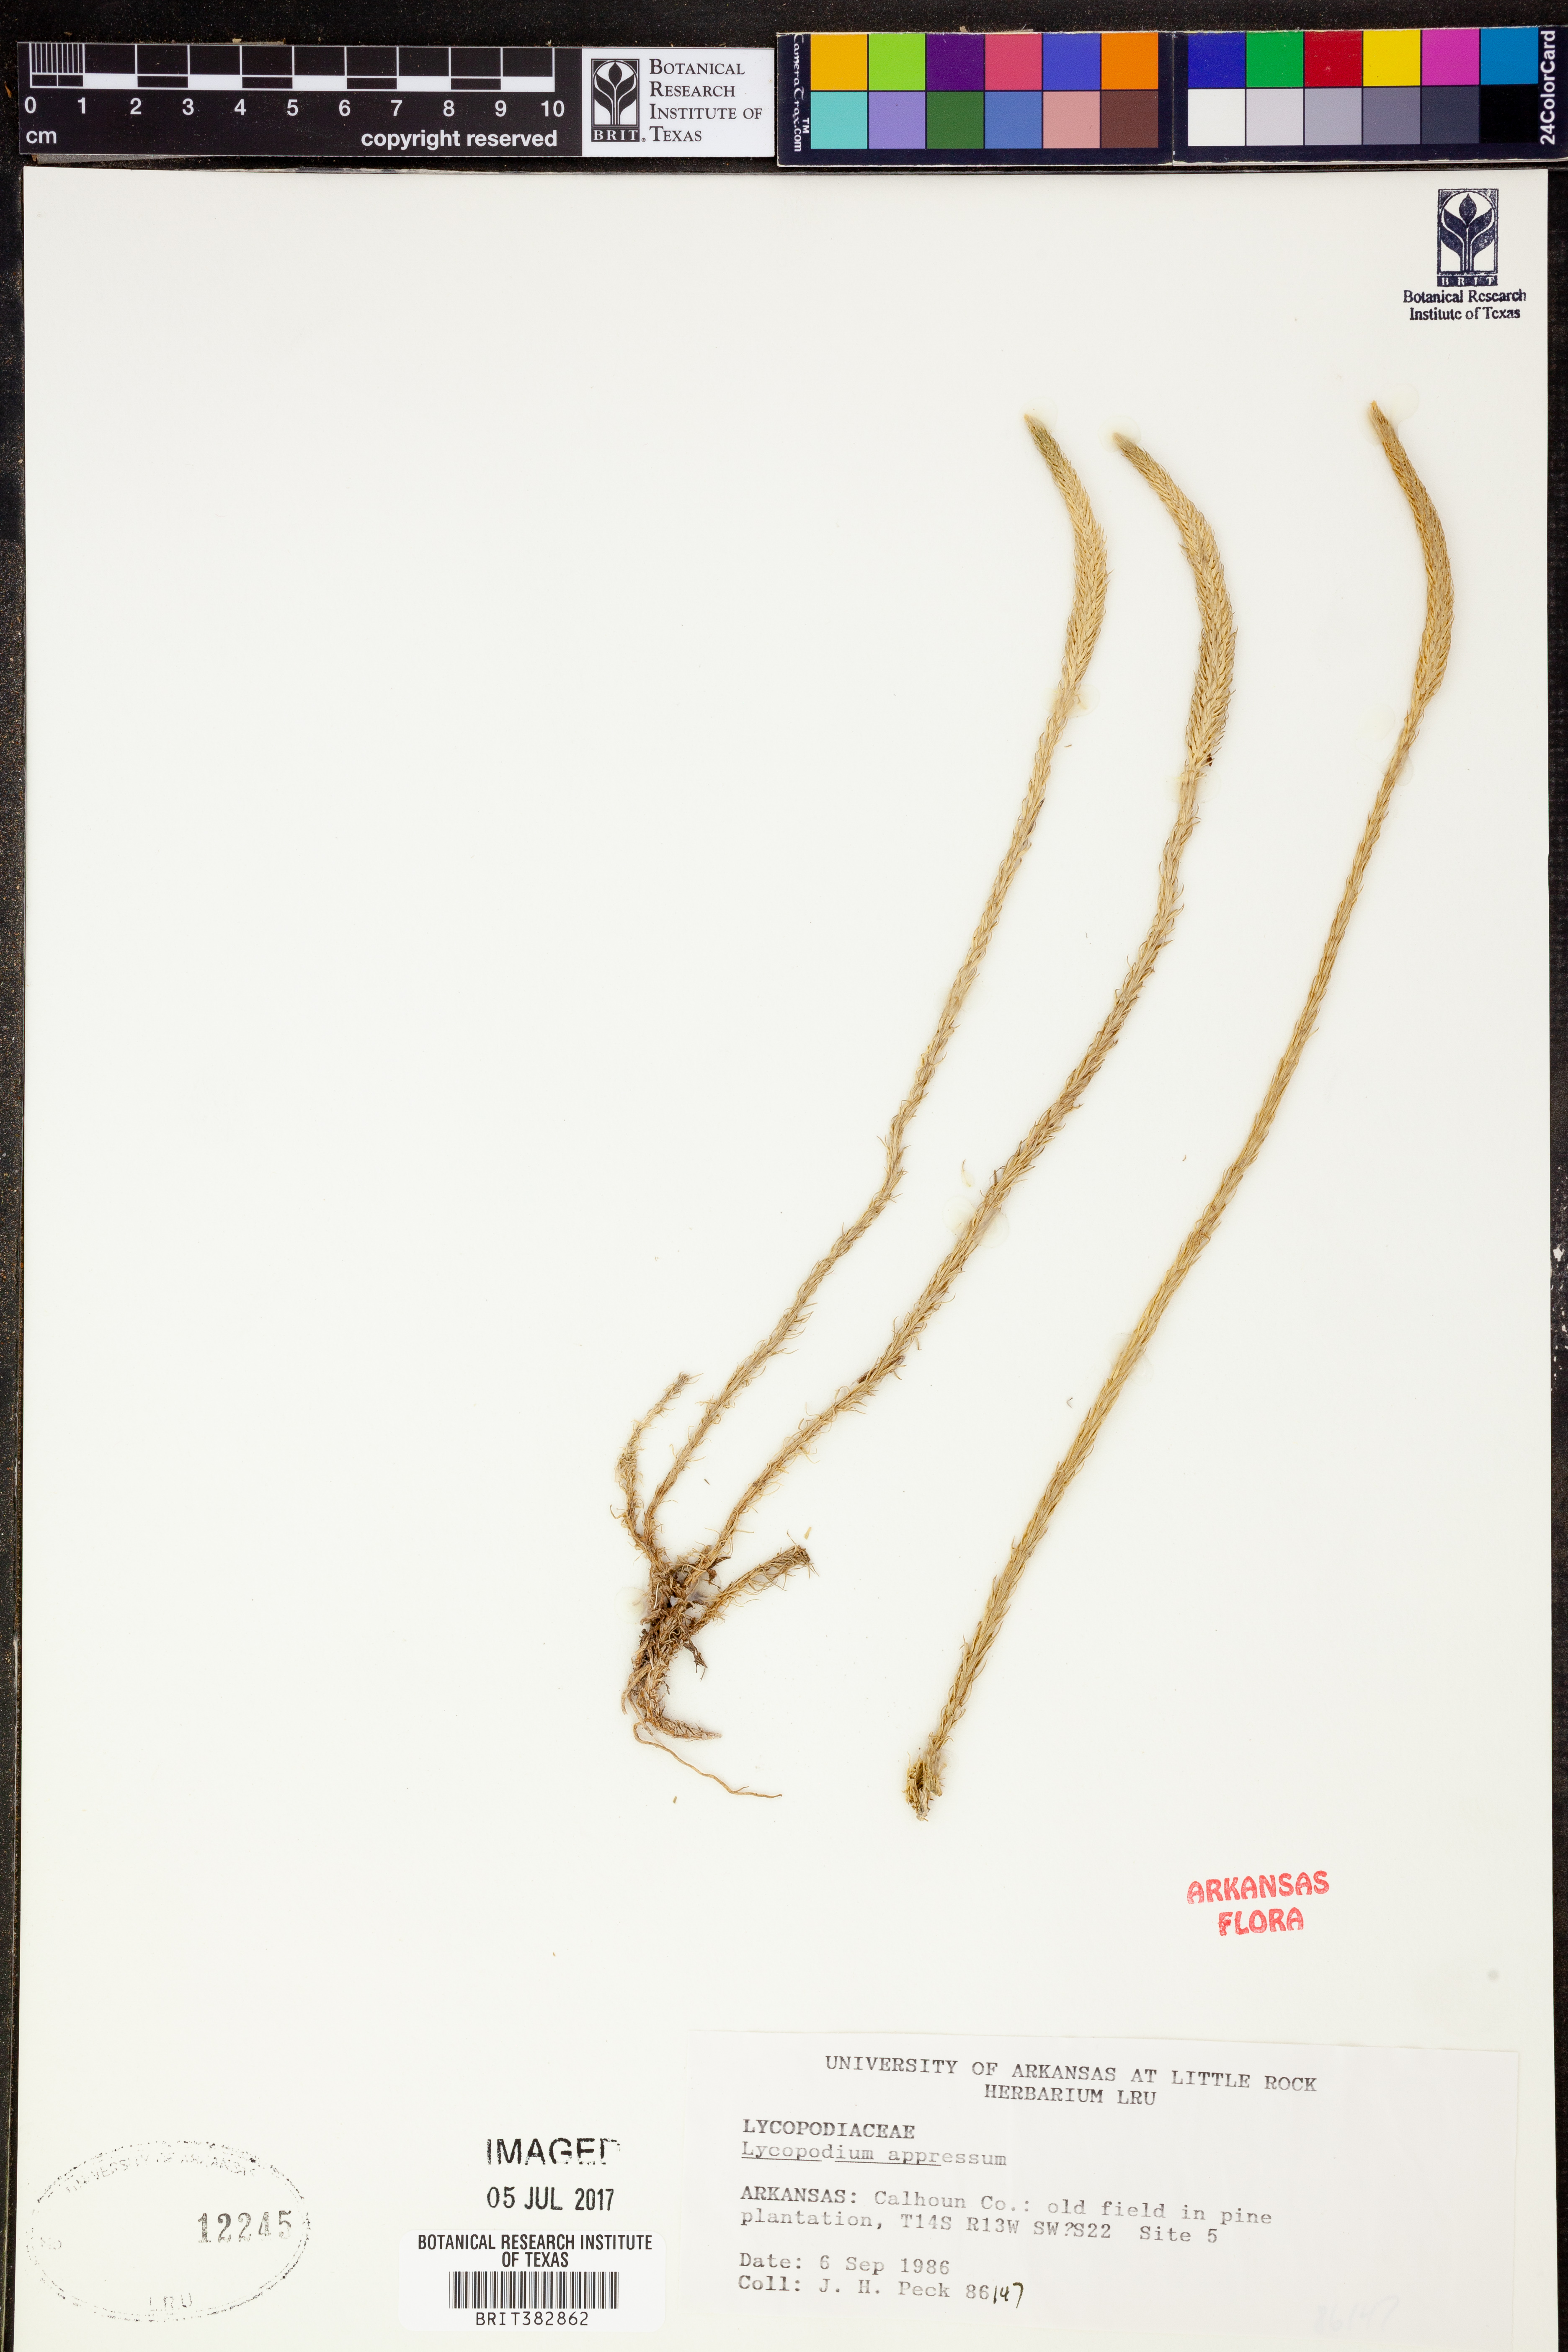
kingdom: Plantae
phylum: Tracheophyta
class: Lycopodiopsida
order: Lycopodiales
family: Lycopodiaceae
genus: Lycopodiella
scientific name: Lycopodiella appressa
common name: Appressed bog clubmoss
